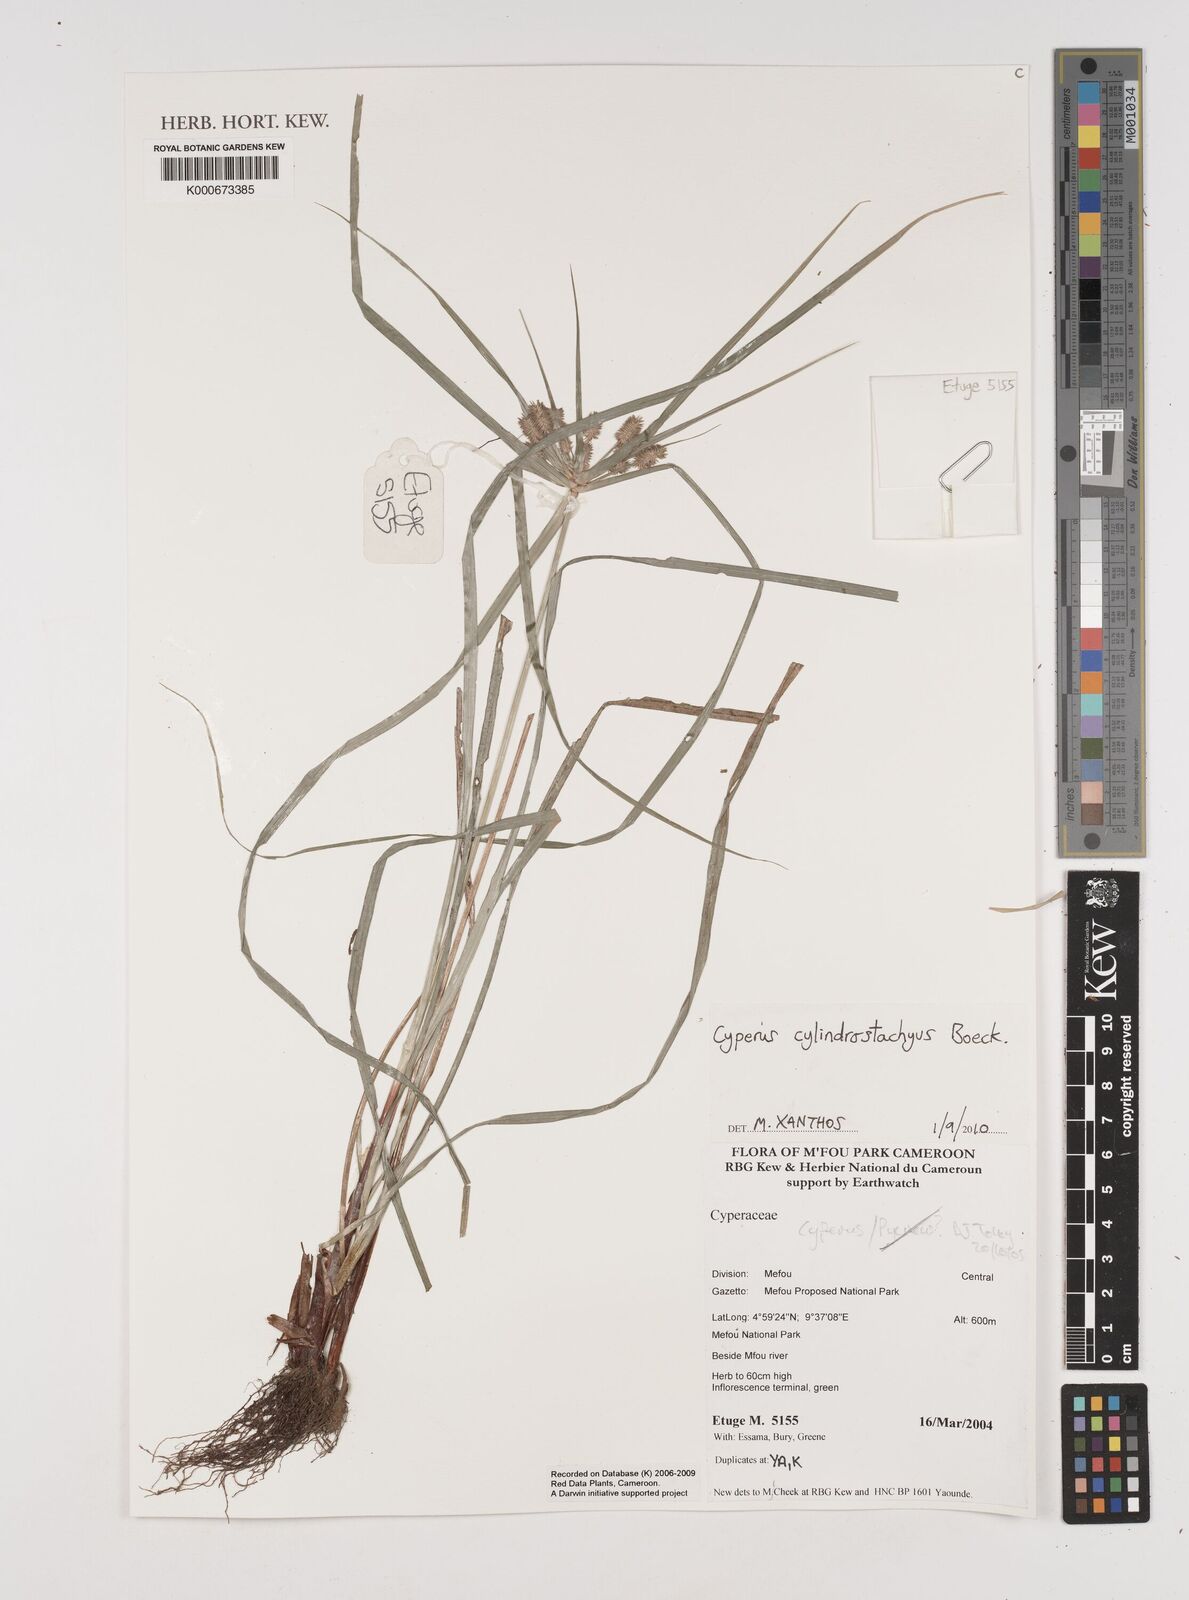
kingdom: Plantae
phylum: Tracheophyta
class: Liliopsida
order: Poales
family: Cyperaceae
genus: Cyperus
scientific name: Cyperus cyperinus
